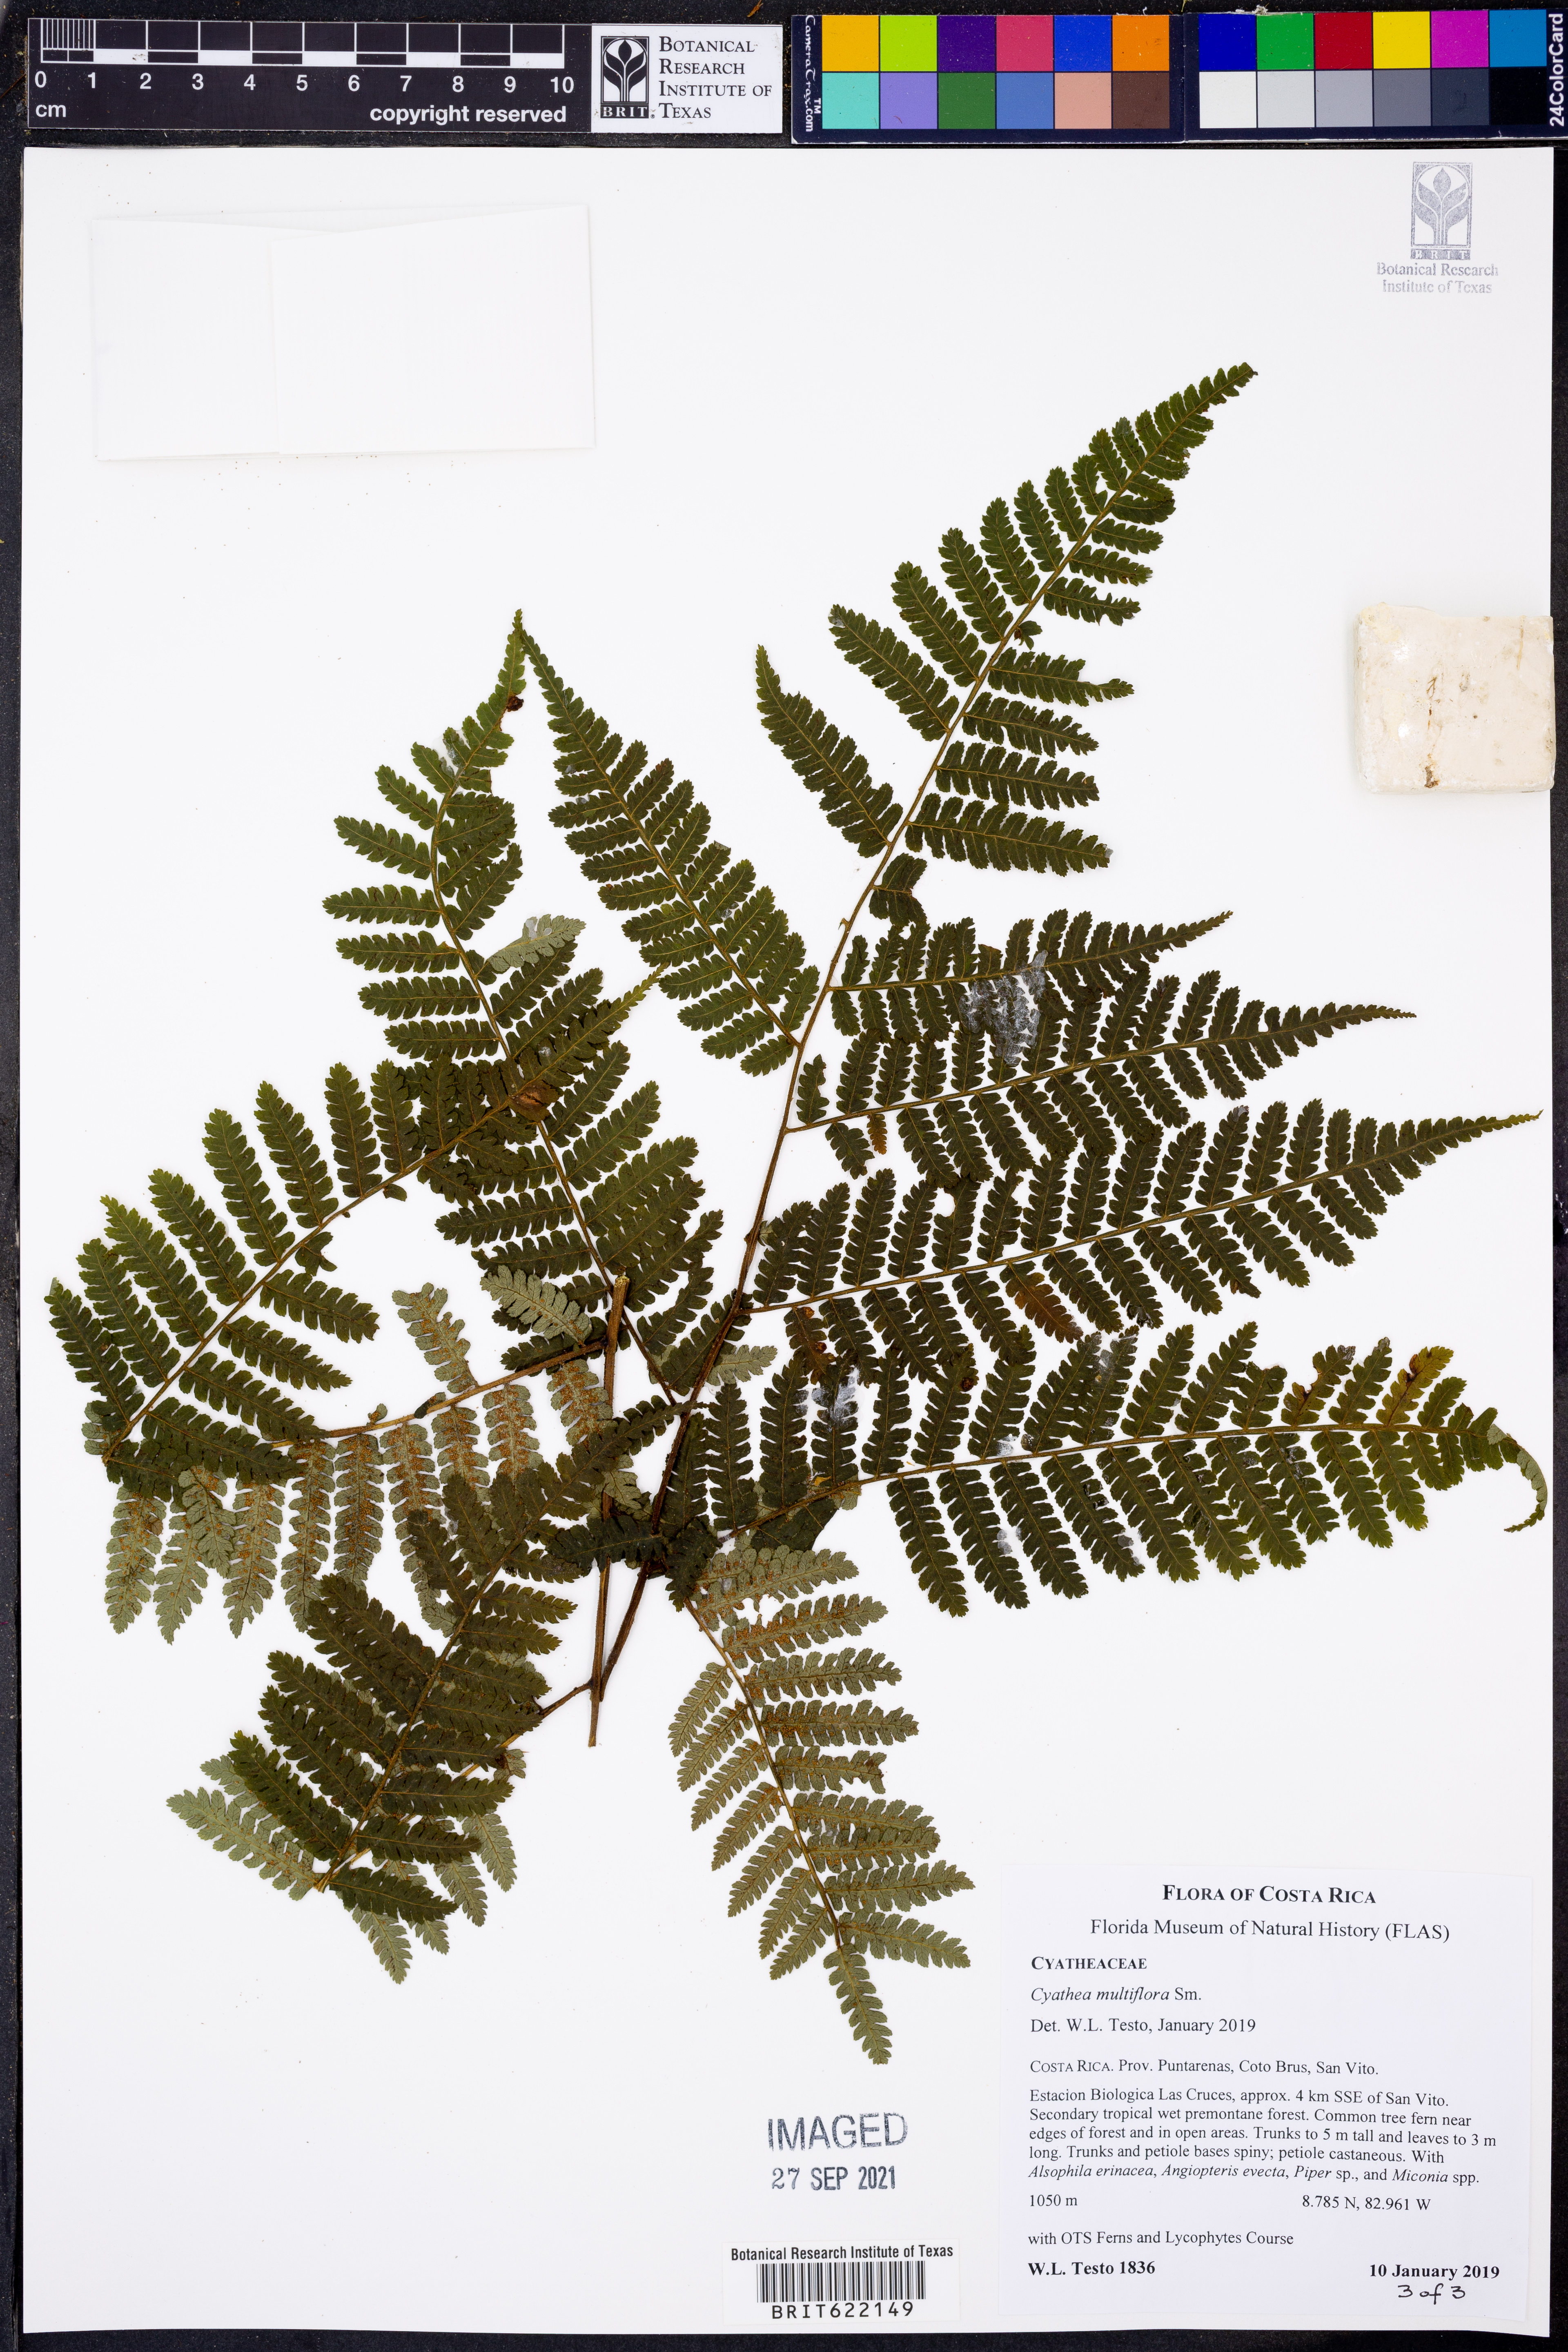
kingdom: Plantae
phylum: Tracheophyta
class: Polypodiopsida
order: Cyatheales
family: Cyatheaceae
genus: Cyathea
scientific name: Cyathea multiflora
